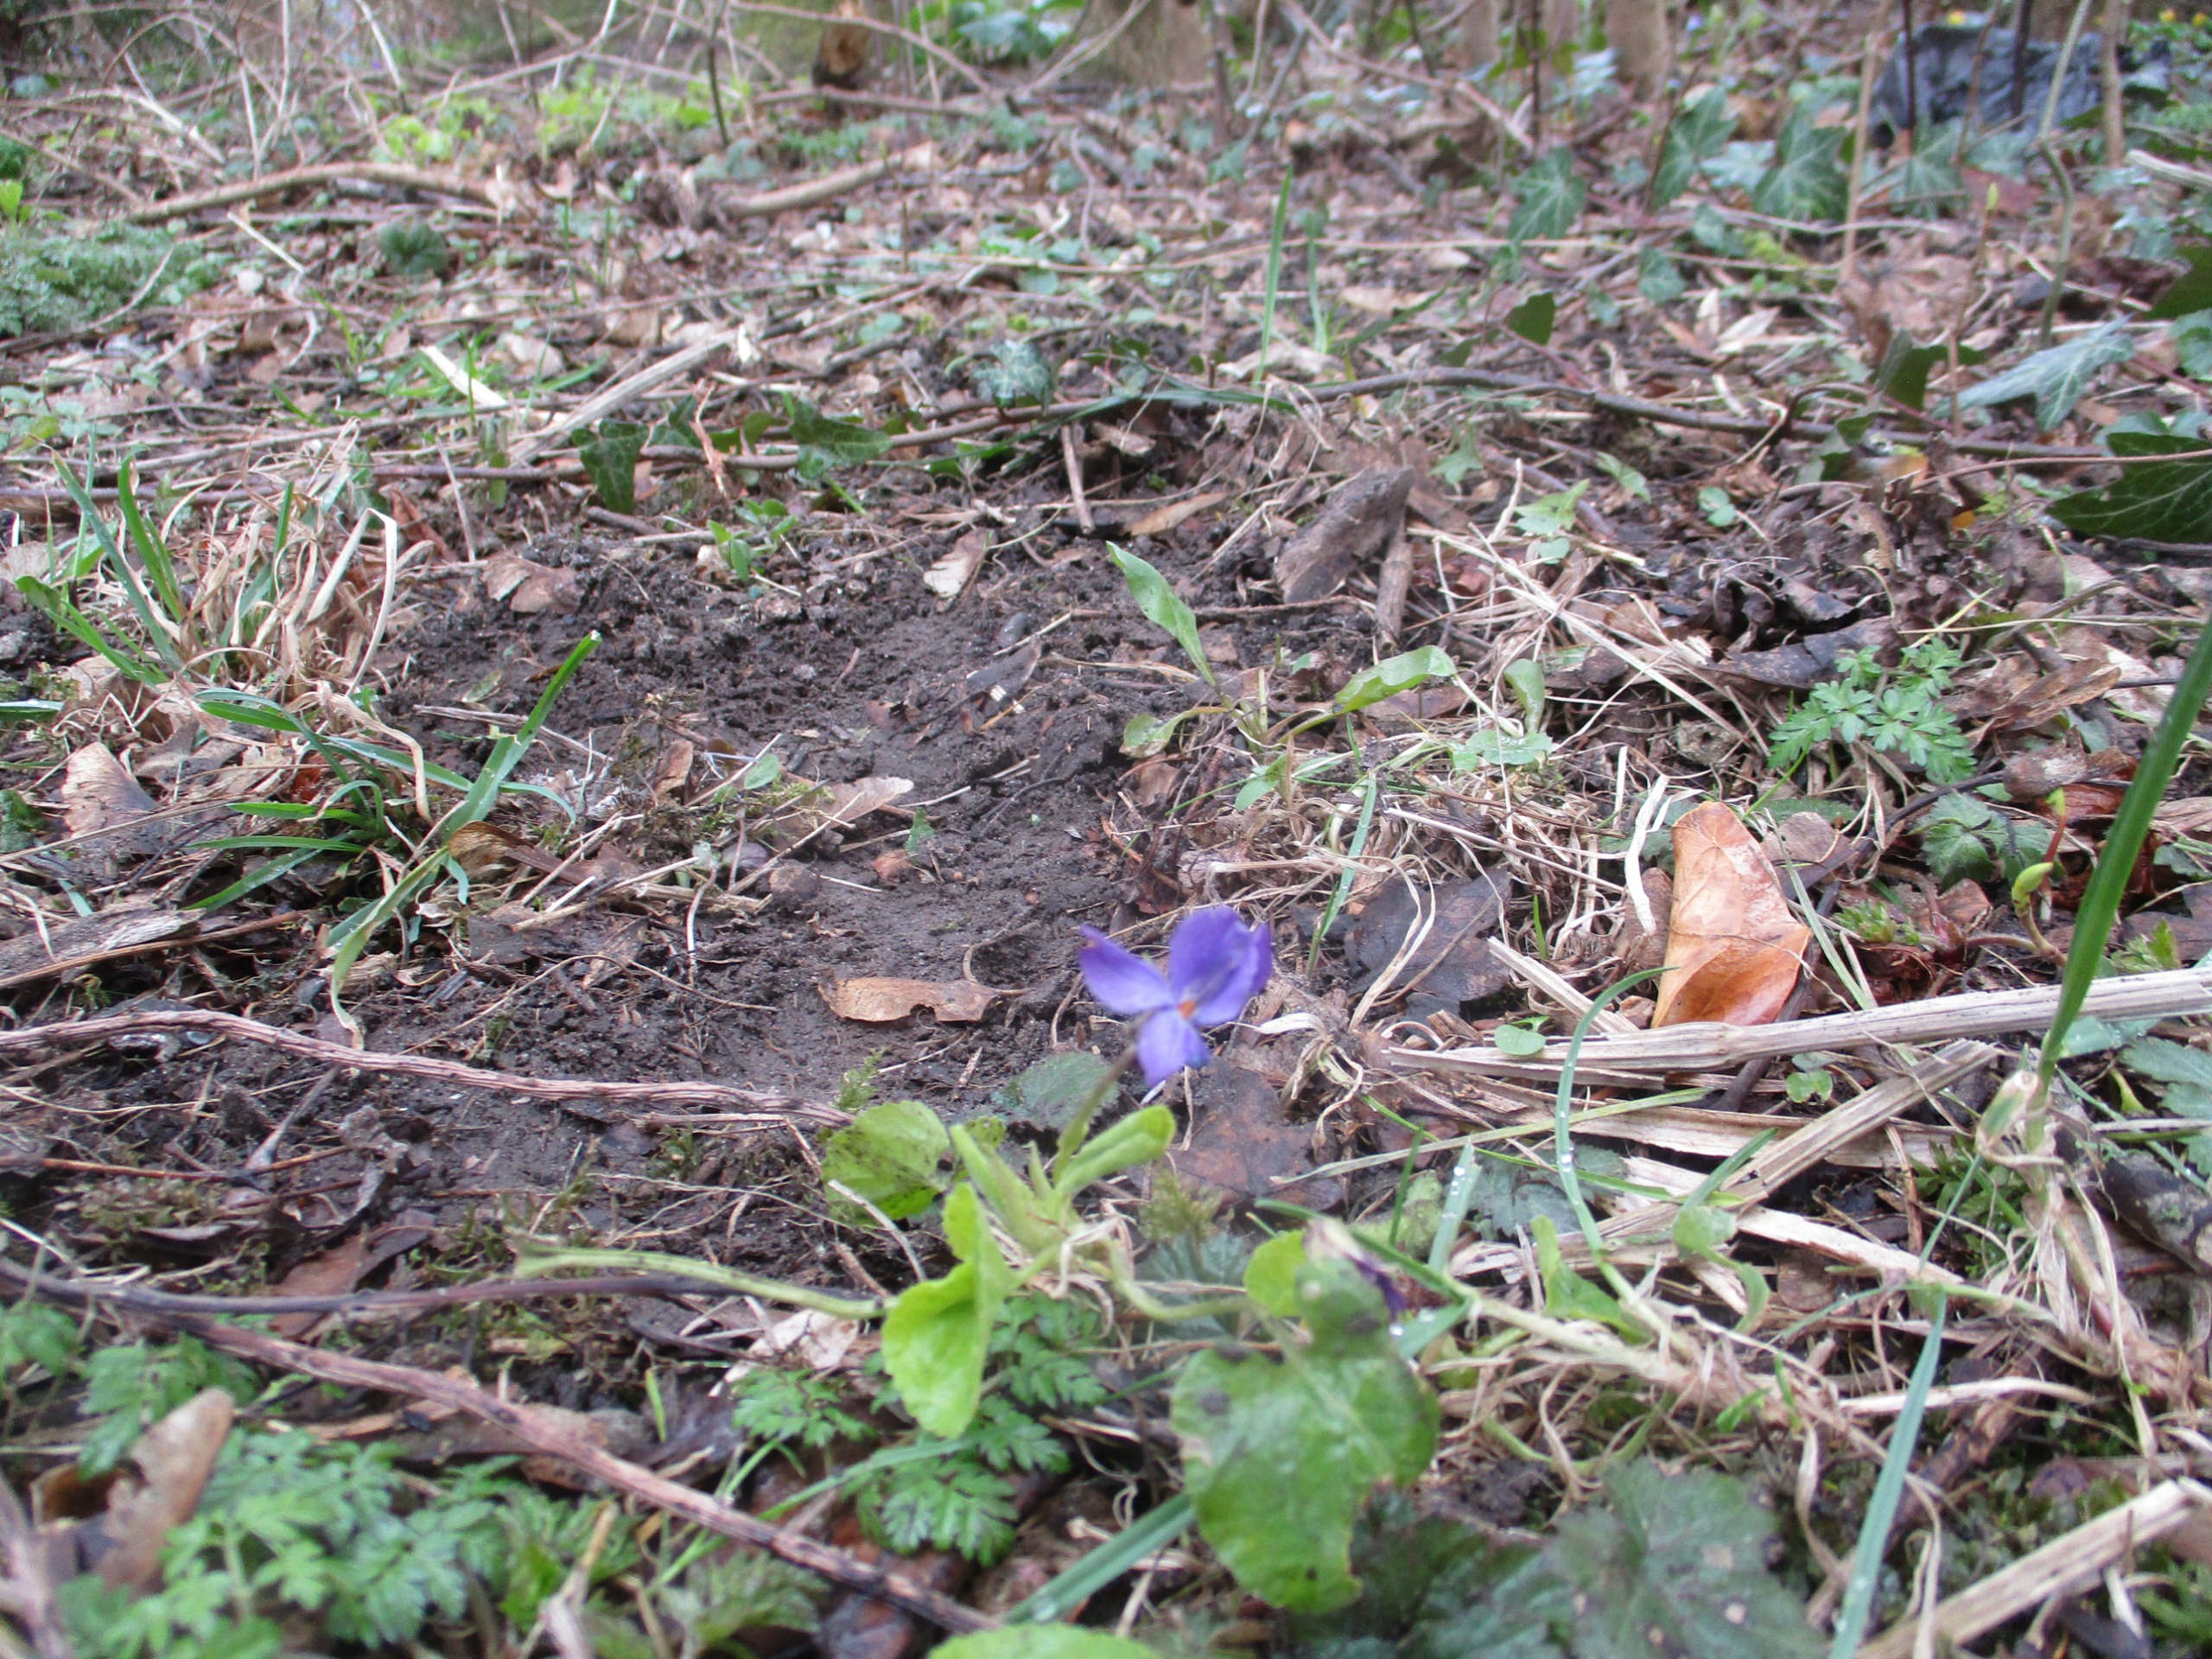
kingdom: Plantae
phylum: Tracheophyta
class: Magnoliopsida
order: Malpighiales
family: Violaceae
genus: Viola
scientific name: Viola odorata
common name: Marts-viol
